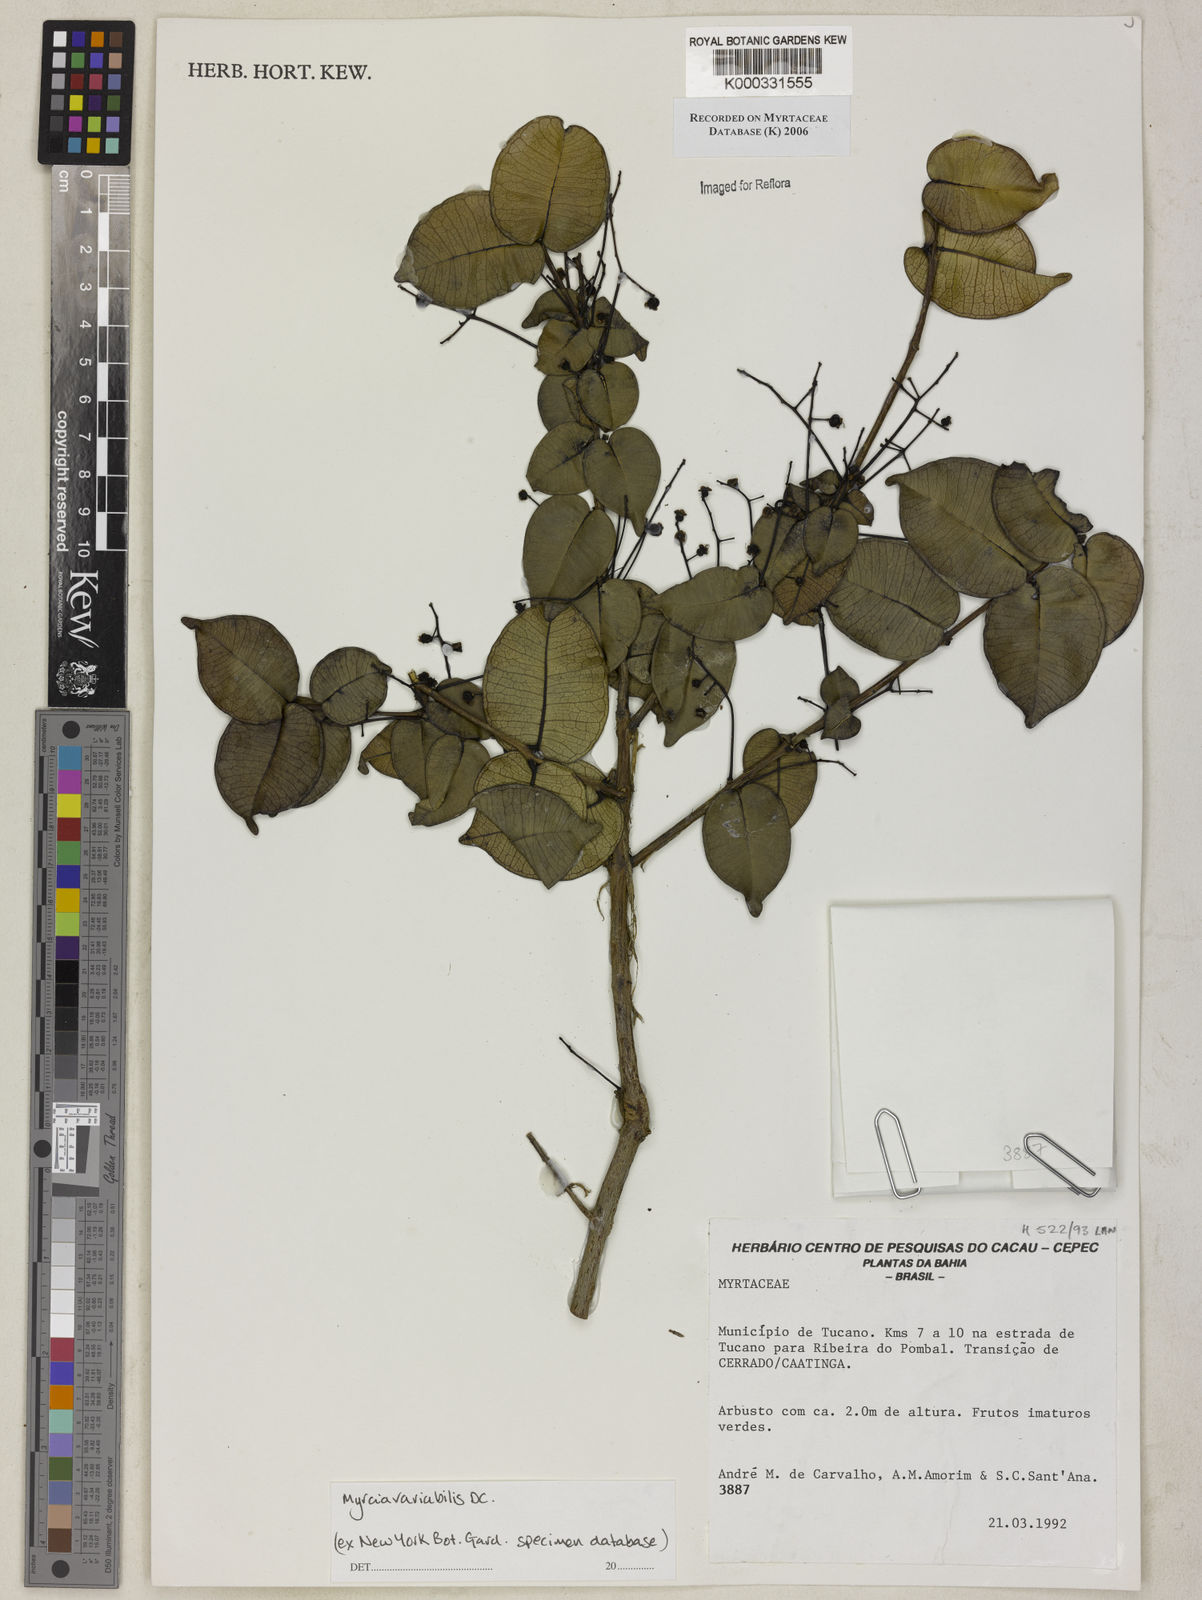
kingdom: Plantae
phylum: Tracheophyta
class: Magnoliopsida
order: Myrtales
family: Myrtaceae
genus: Myrcia
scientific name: Myrcia neopolyantha
